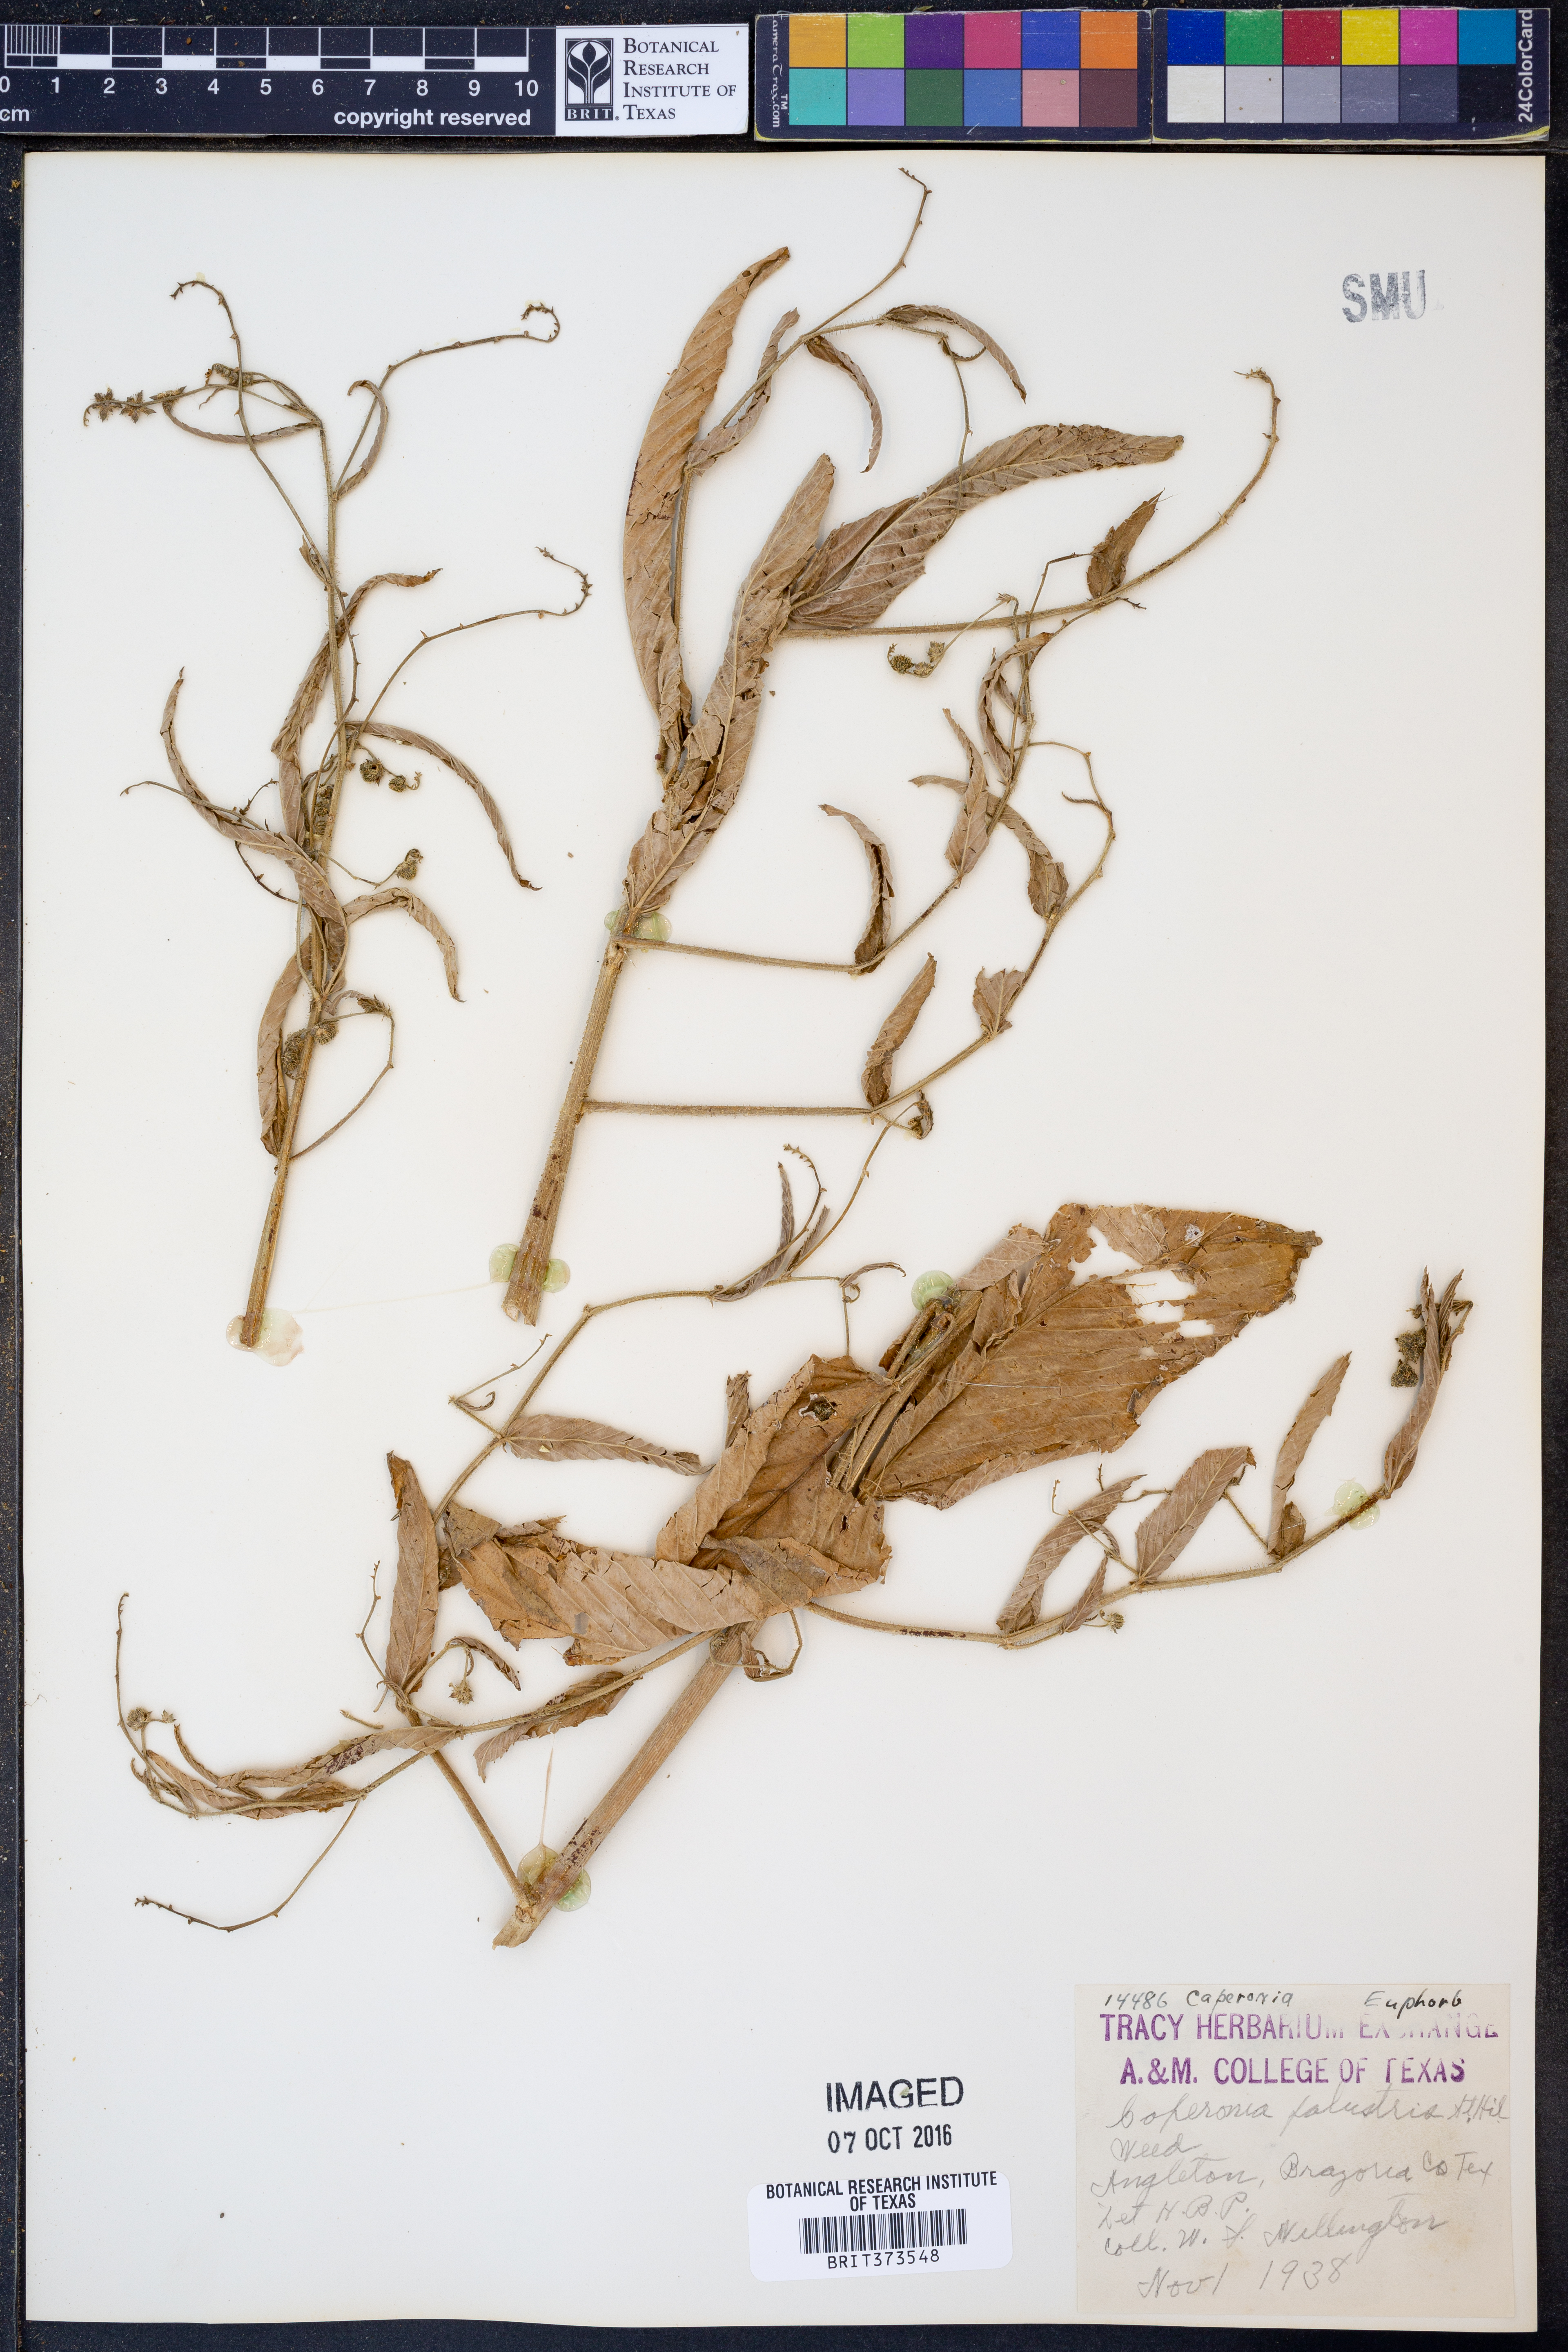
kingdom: Plantae
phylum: Tracheophyta
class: Magnoliopsida
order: Malpighiales
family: Euphorbiaceae
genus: Caperonia
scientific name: Caperonia palustris
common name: Sacatrapo
